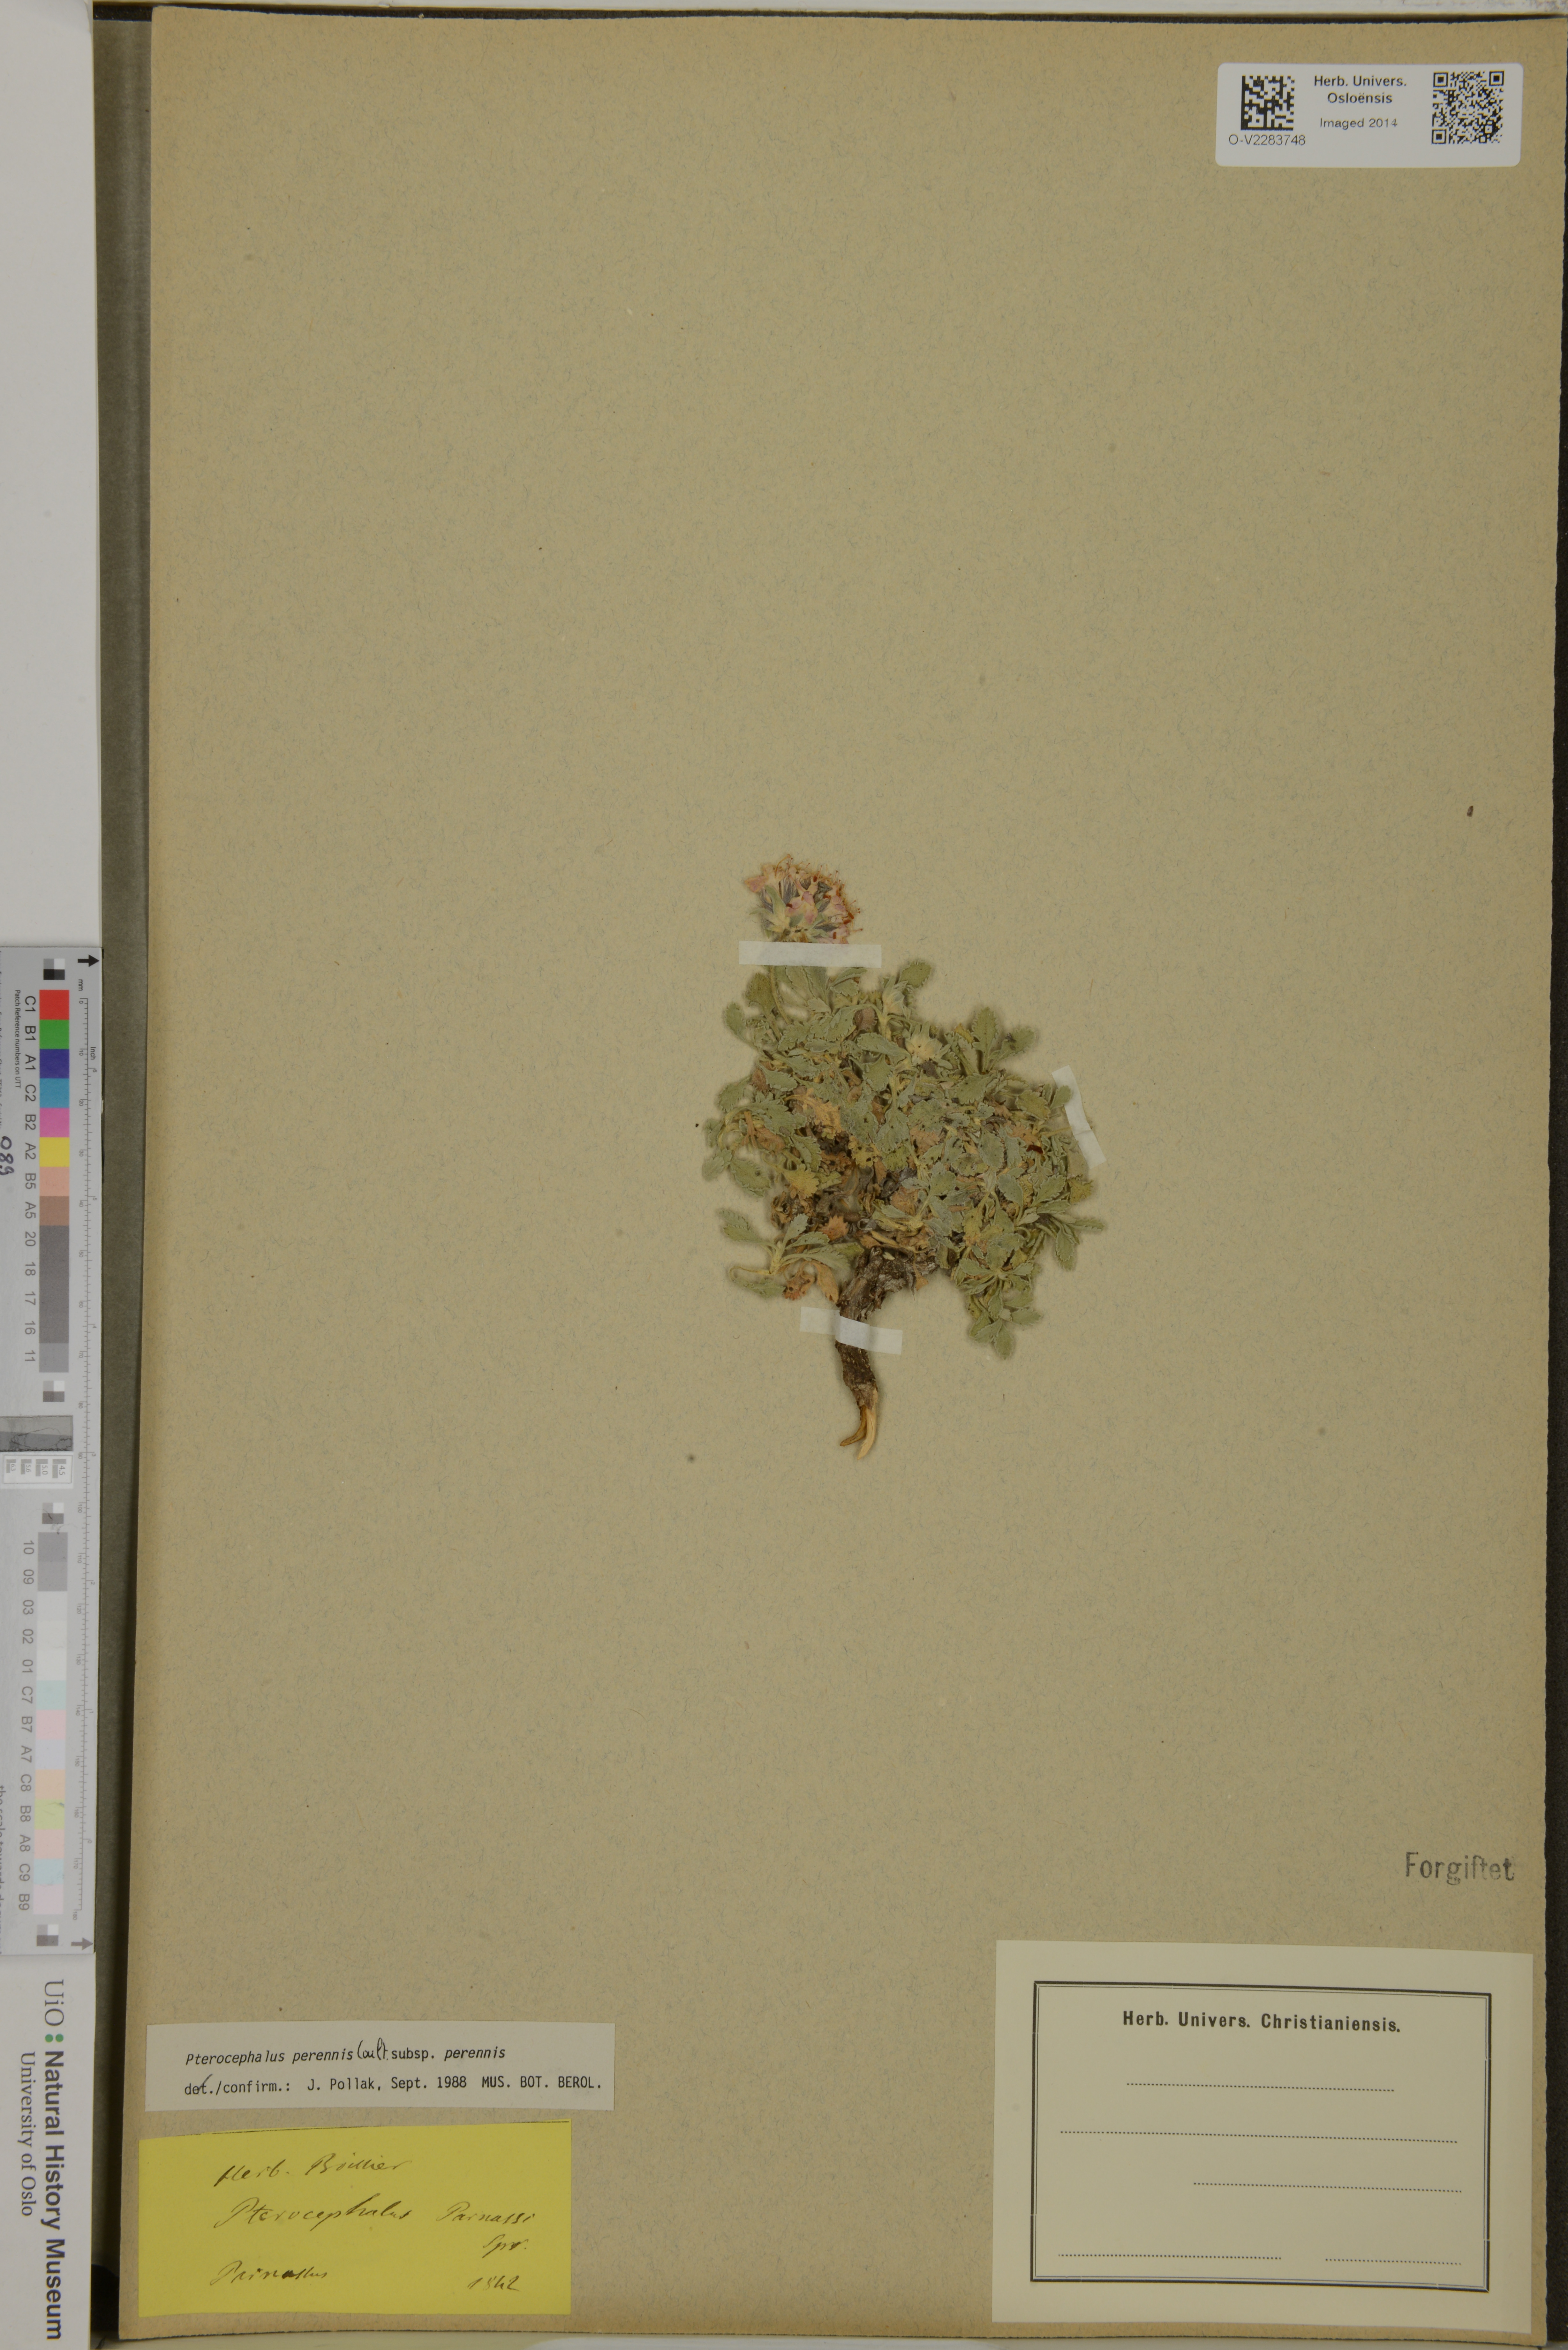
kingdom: Plantae
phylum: Tracheophyta
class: Magnoliopsida
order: Dipsacales
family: Caprifoliaceae
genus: Pterocephalus
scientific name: Pterocephalus perennis
